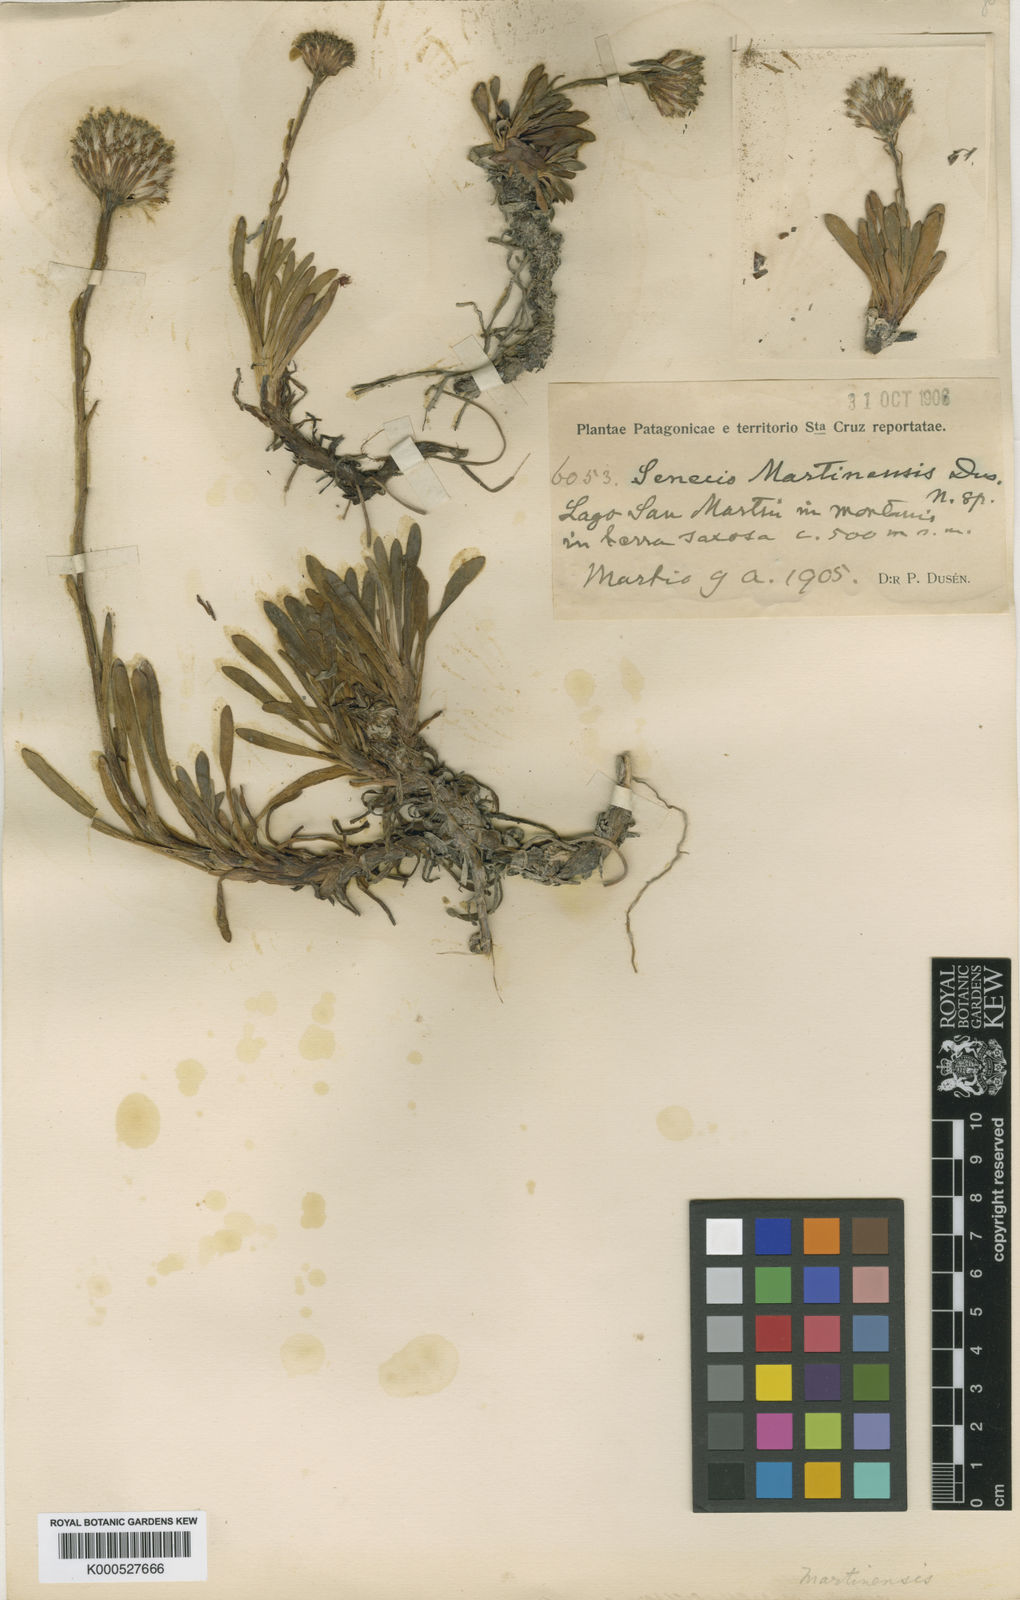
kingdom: Plantae
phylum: Tracheophyta
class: Magnoliopsida
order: Asterales
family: Asteraceae
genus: Senecio
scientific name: Senecio
